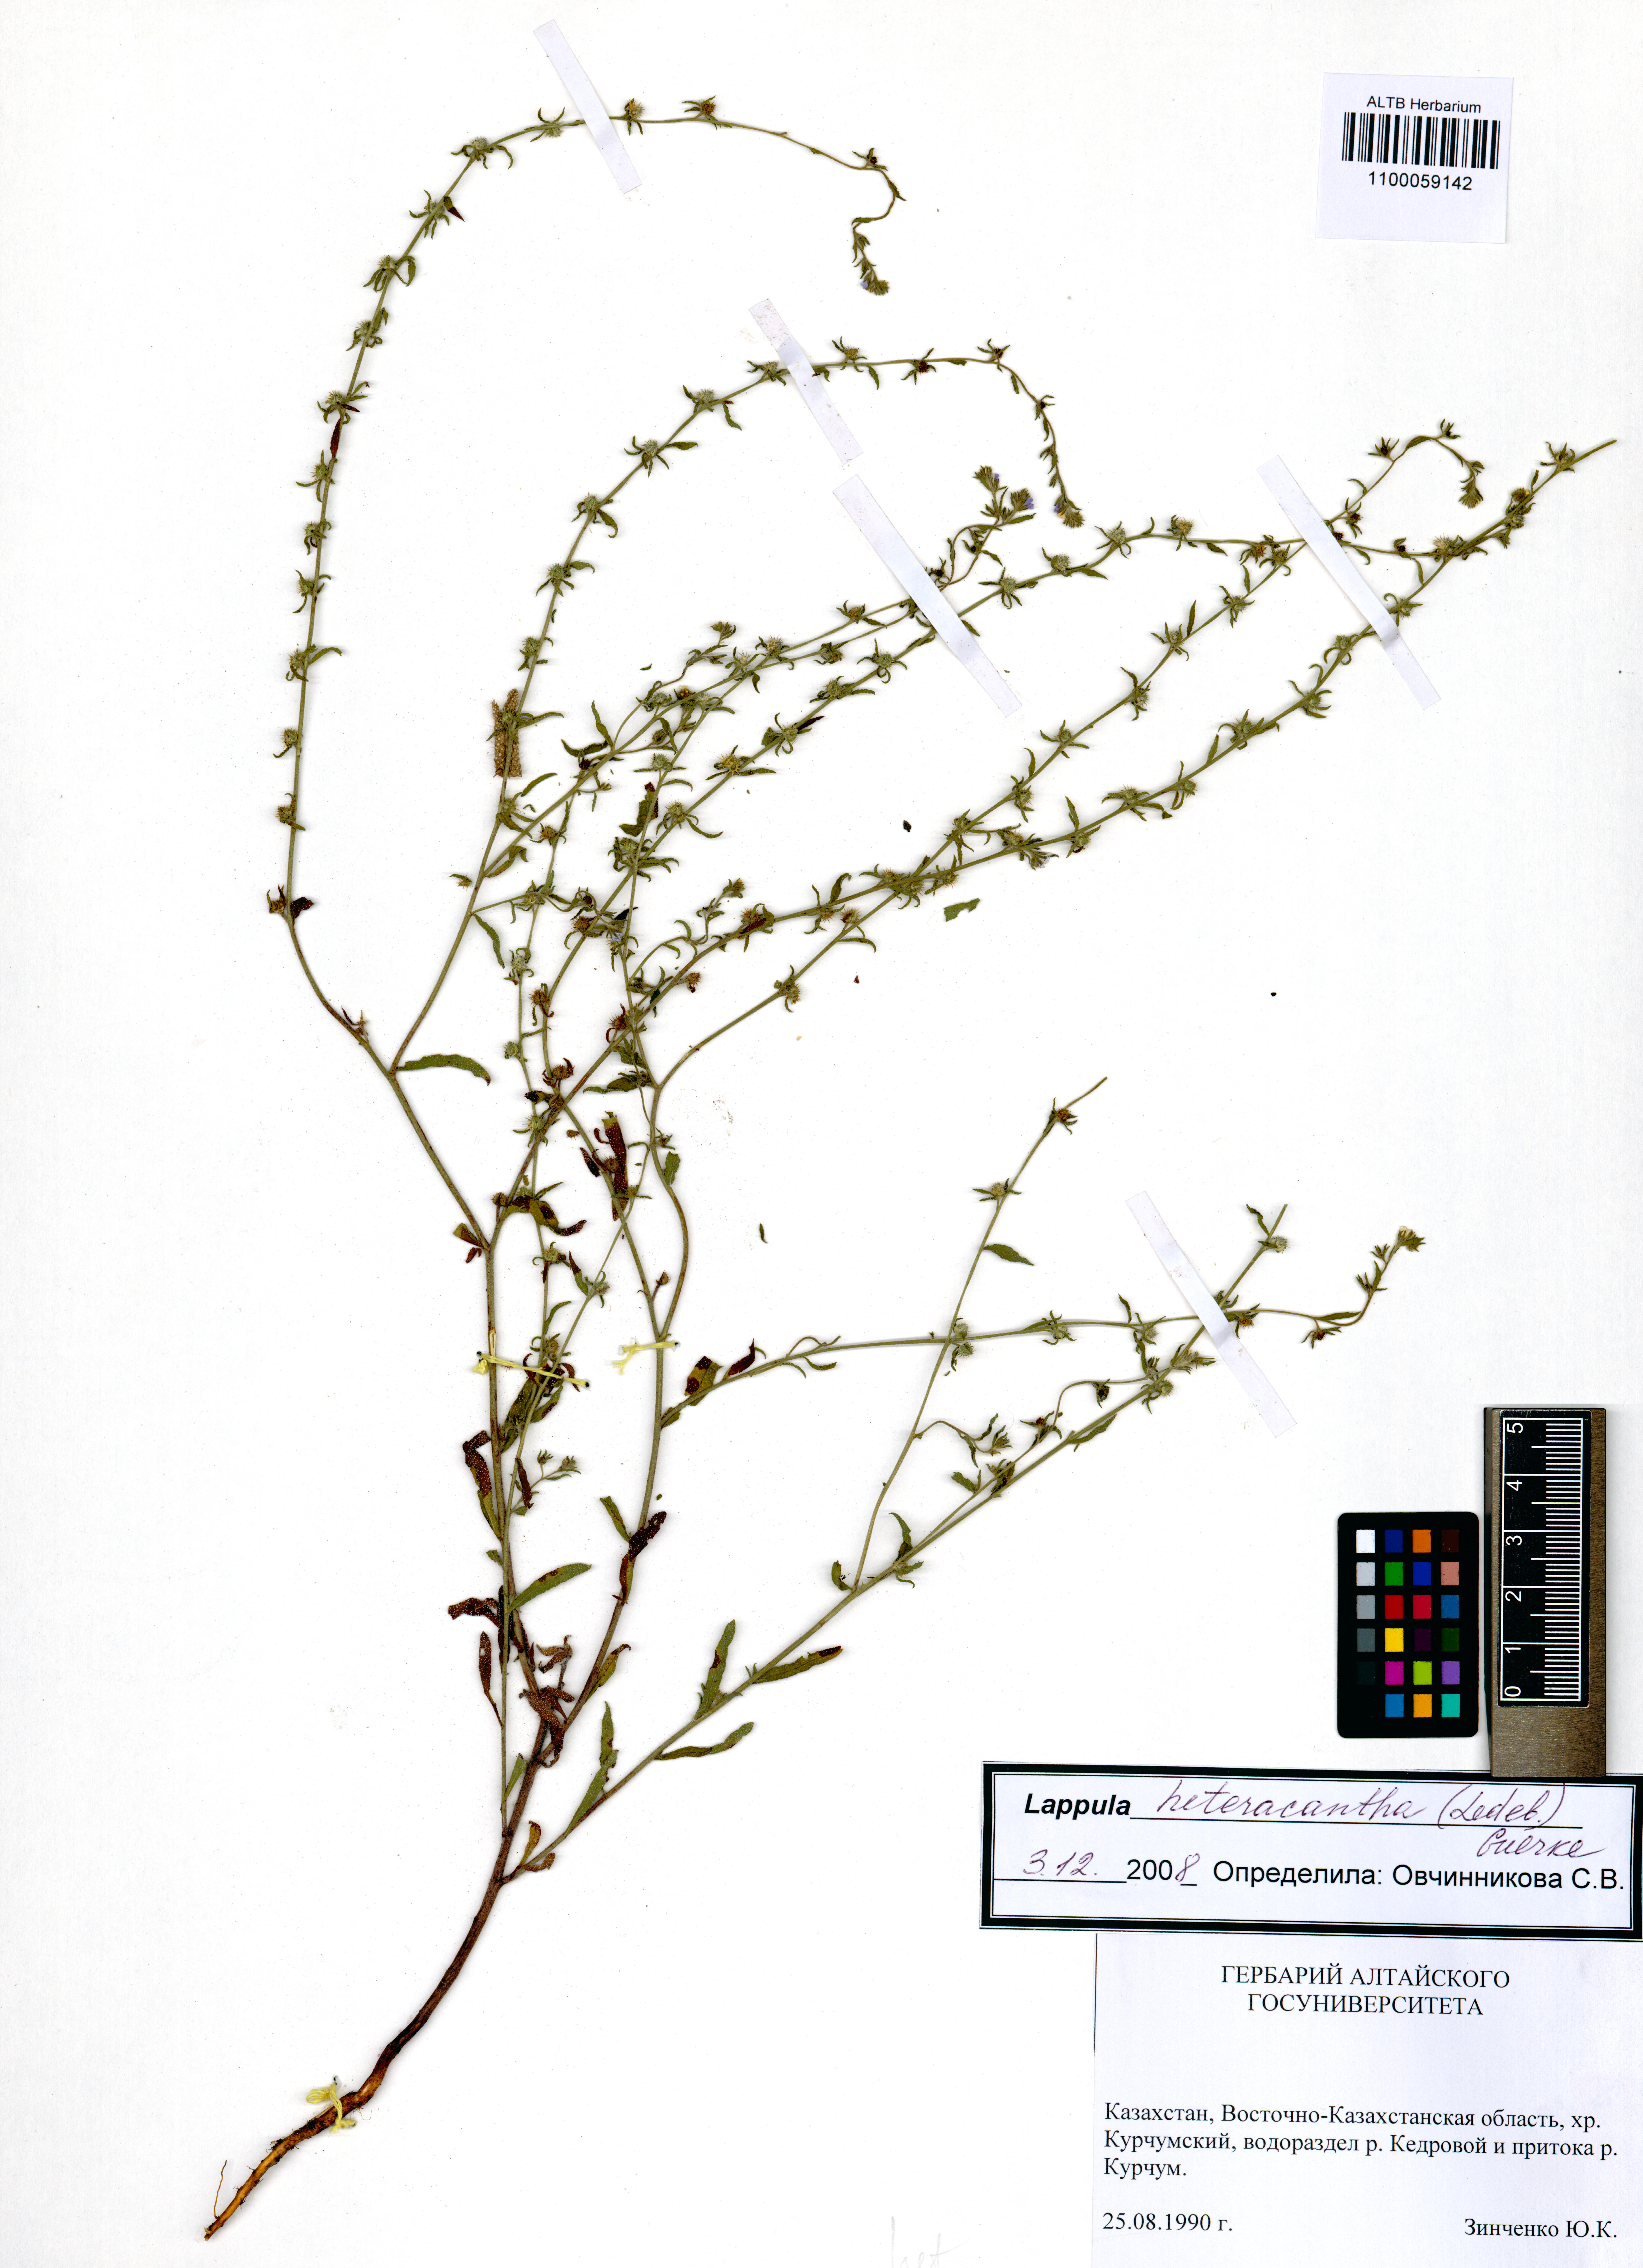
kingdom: Plantae
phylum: Tracheophyta
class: Magnoliopsida
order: Boraginales
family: Boraginaceae
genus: Lappula
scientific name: Lappula heteracantha
